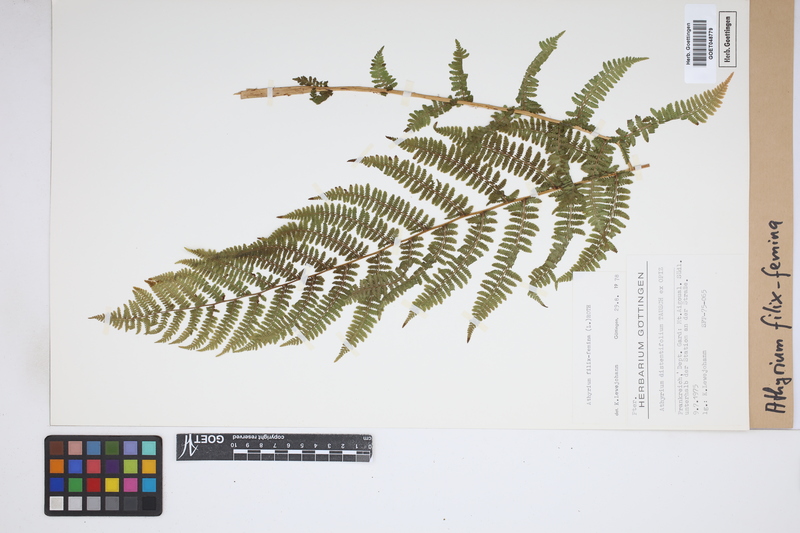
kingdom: Plantae
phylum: Tracheophyta
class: Polypodiopsida
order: Polypodiales
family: Athyriaceae
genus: Athyrium
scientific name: Athyrium filix-femina
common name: Lady fern
